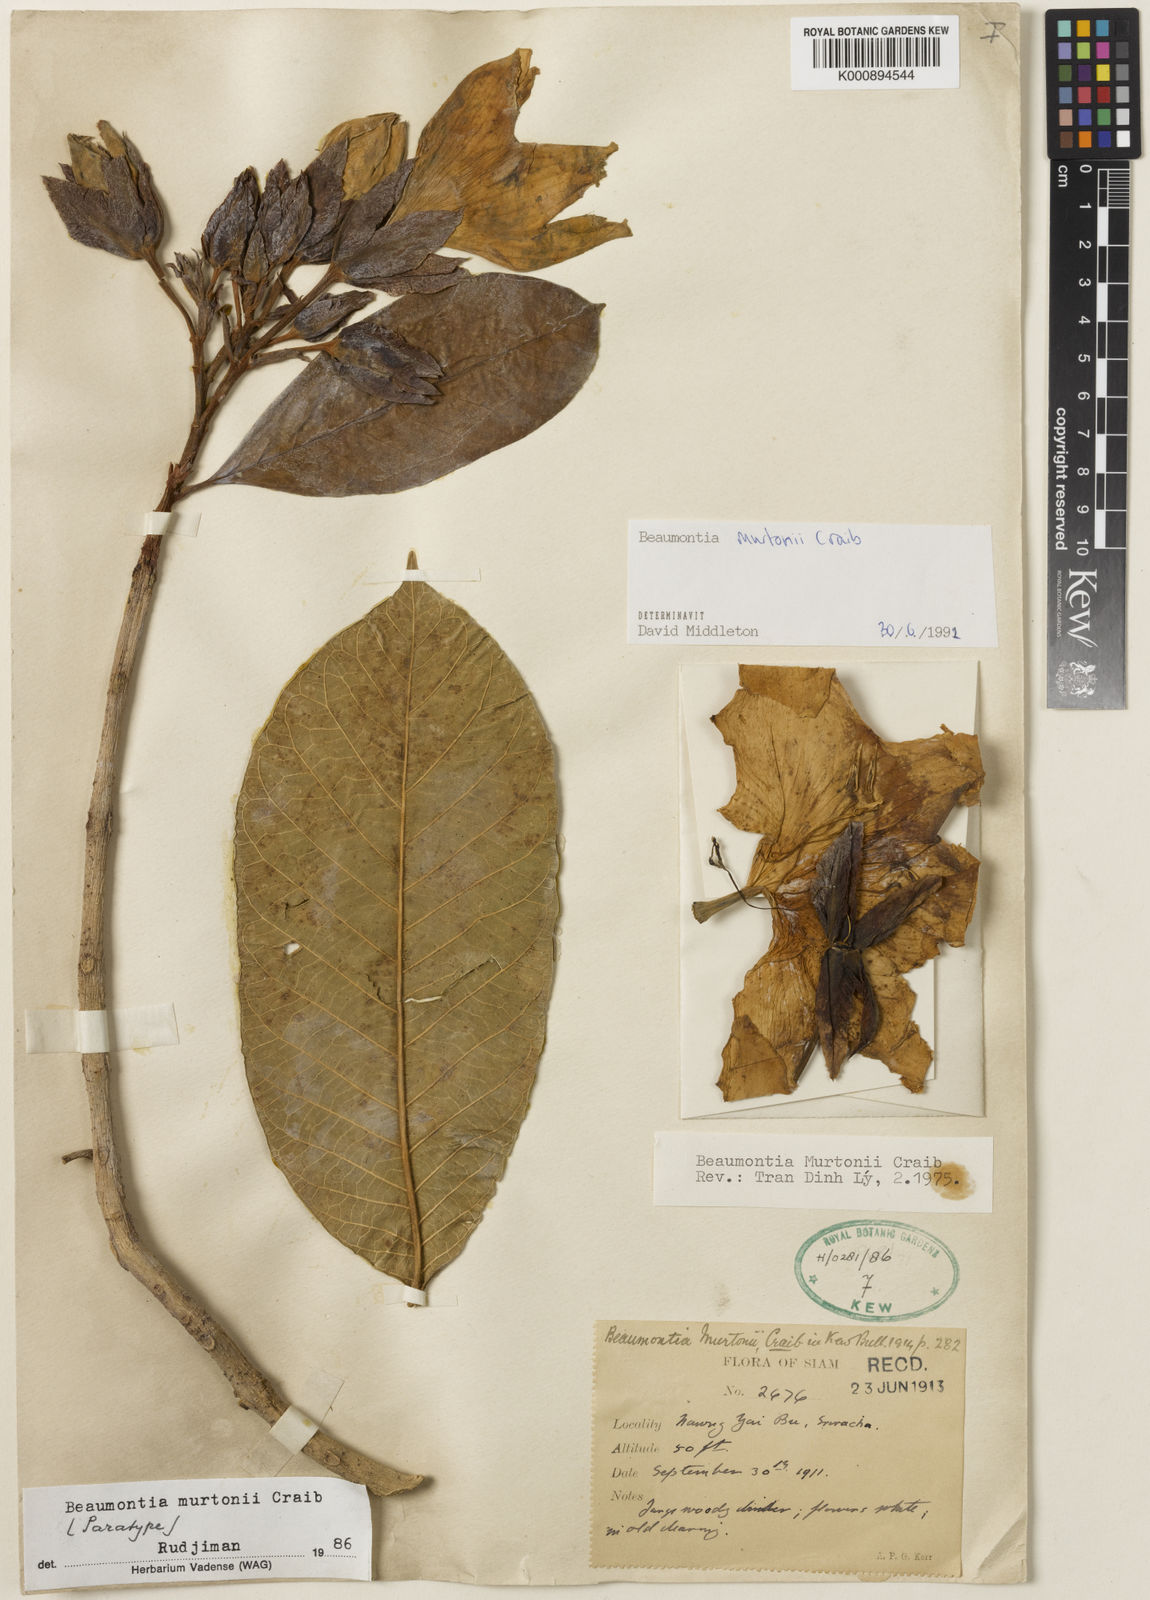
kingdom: Plantae
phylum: Tracheophyta
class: Magnoliopsida
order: Gentianales
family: Apocynaceae
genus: Beaumontia
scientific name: Beaumontia murtonii
